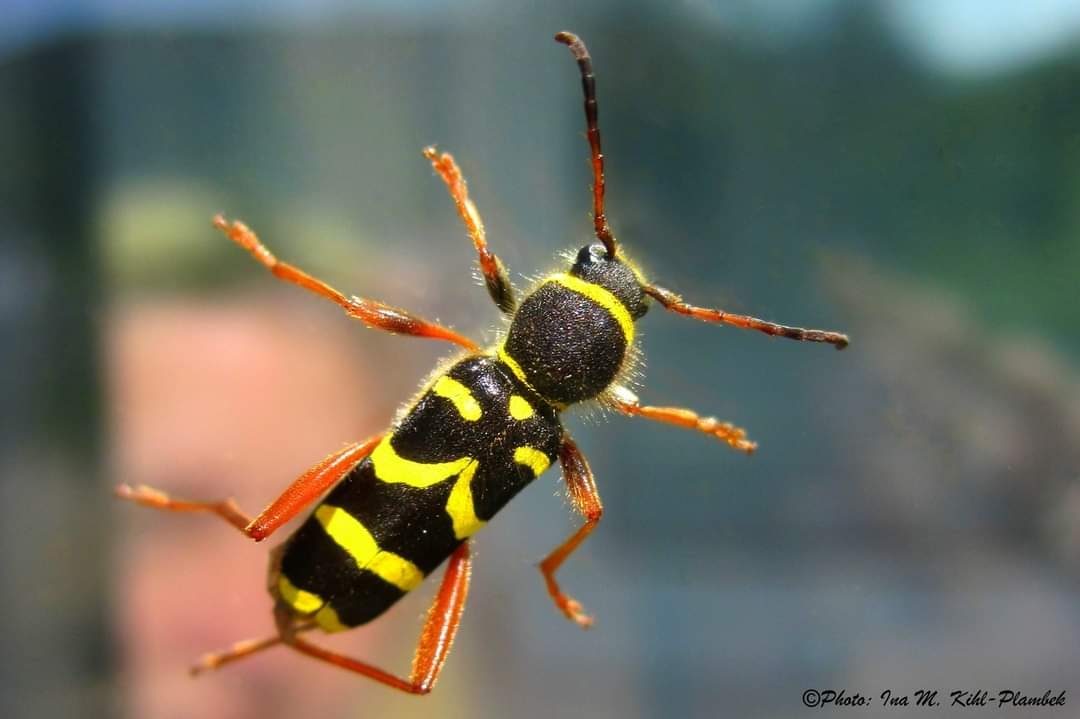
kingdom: Animalia
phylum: Arthropoda
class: Insecta
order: Coleoptera
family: Cerambycidae
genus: Clytus
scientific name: Clytus arietis
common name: Lille hvepsebuk
